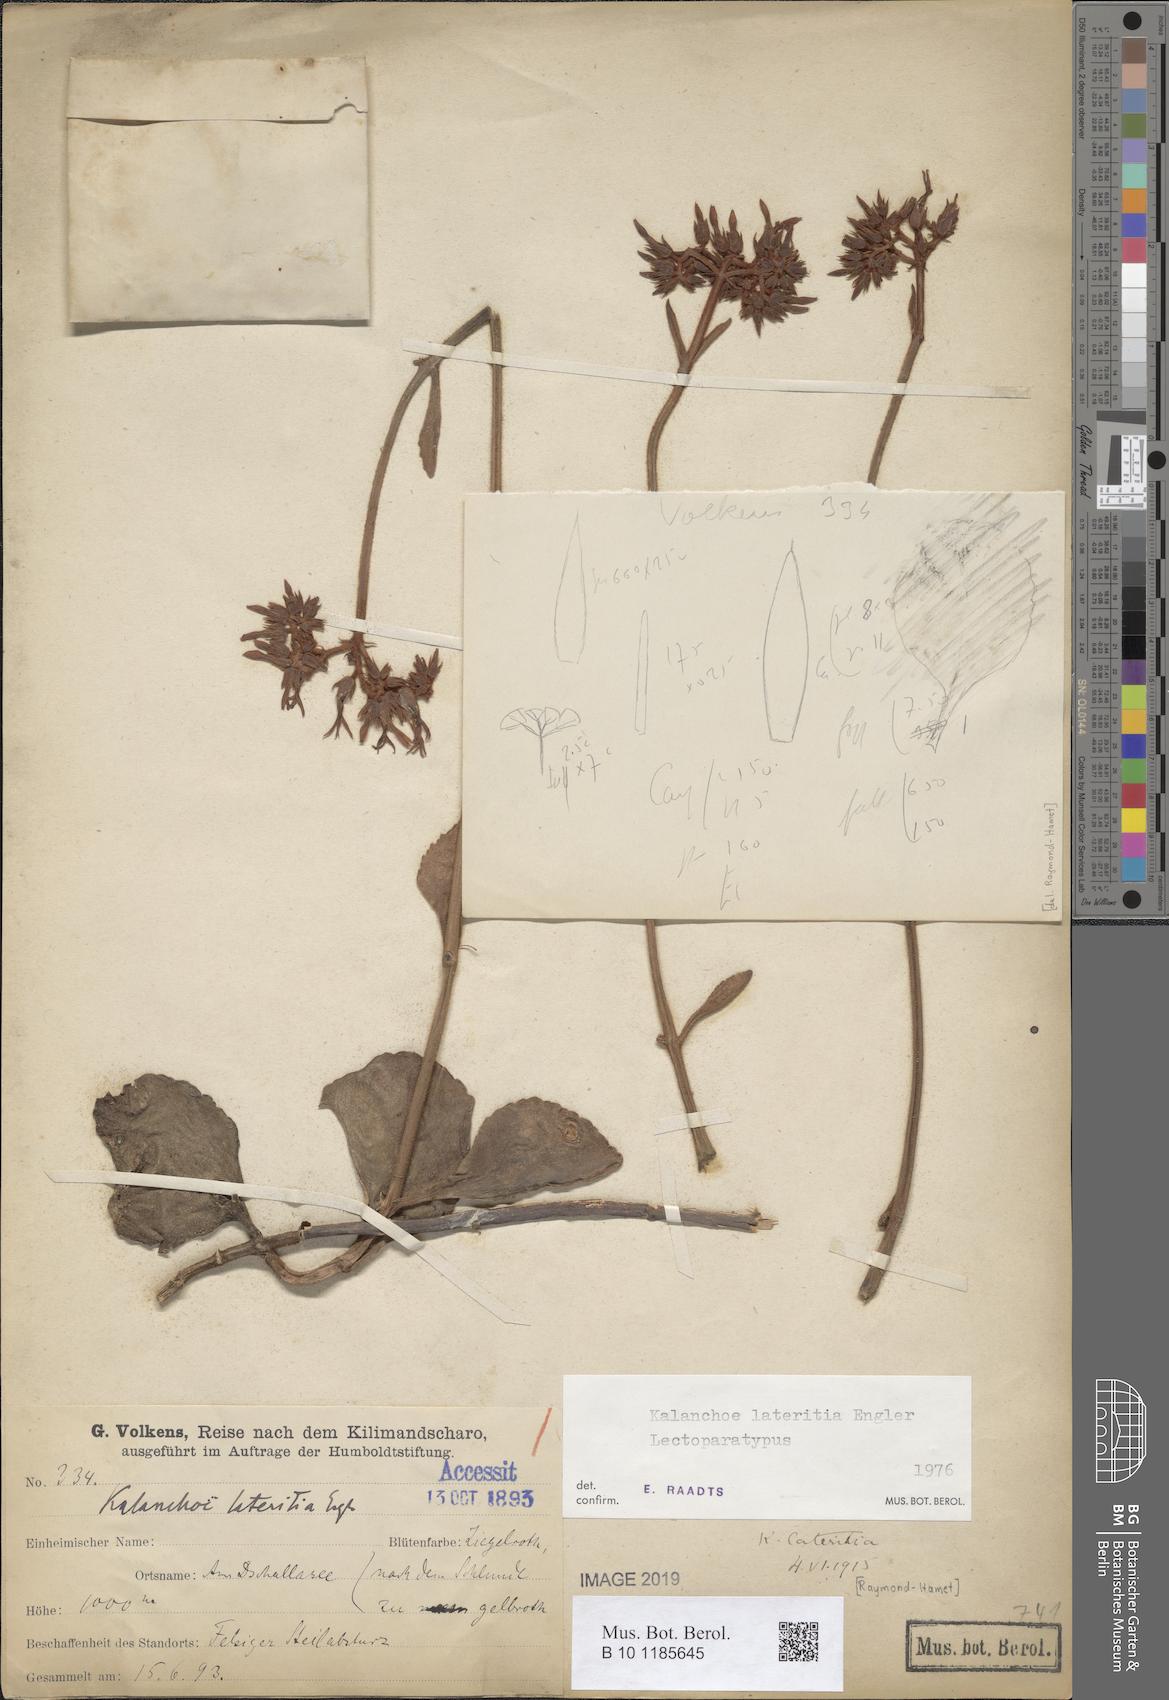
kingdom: Plantae
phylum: Tracheophyta
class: Magnoliopsida
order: Saxifragales
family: Crassulaceae
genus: Kalanchoe
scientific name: Kalanchoe lateritia
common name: Kalanchoe
